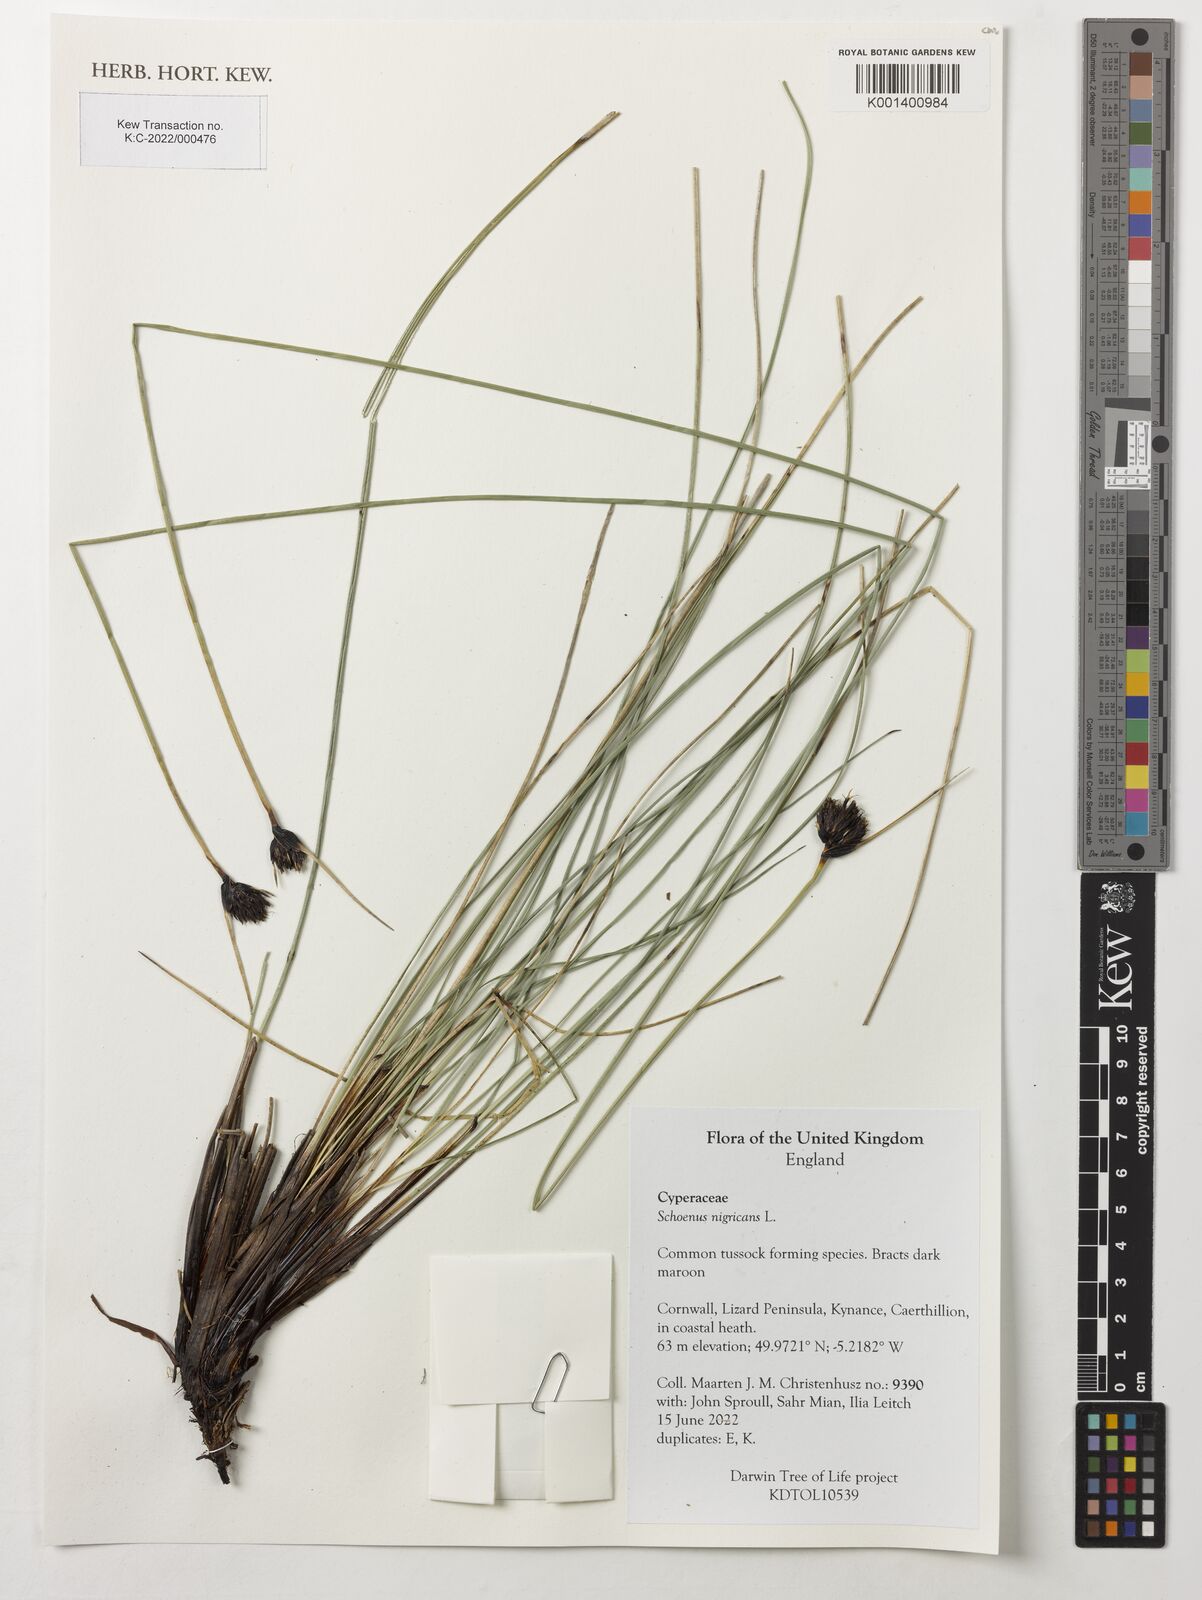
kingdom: Plantae
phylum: Tracheophyta
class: Liliopsida
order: Poales
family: Cyperaceae
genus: Schoenus
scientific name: Schoenus nigricans
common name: Black bog-rush
